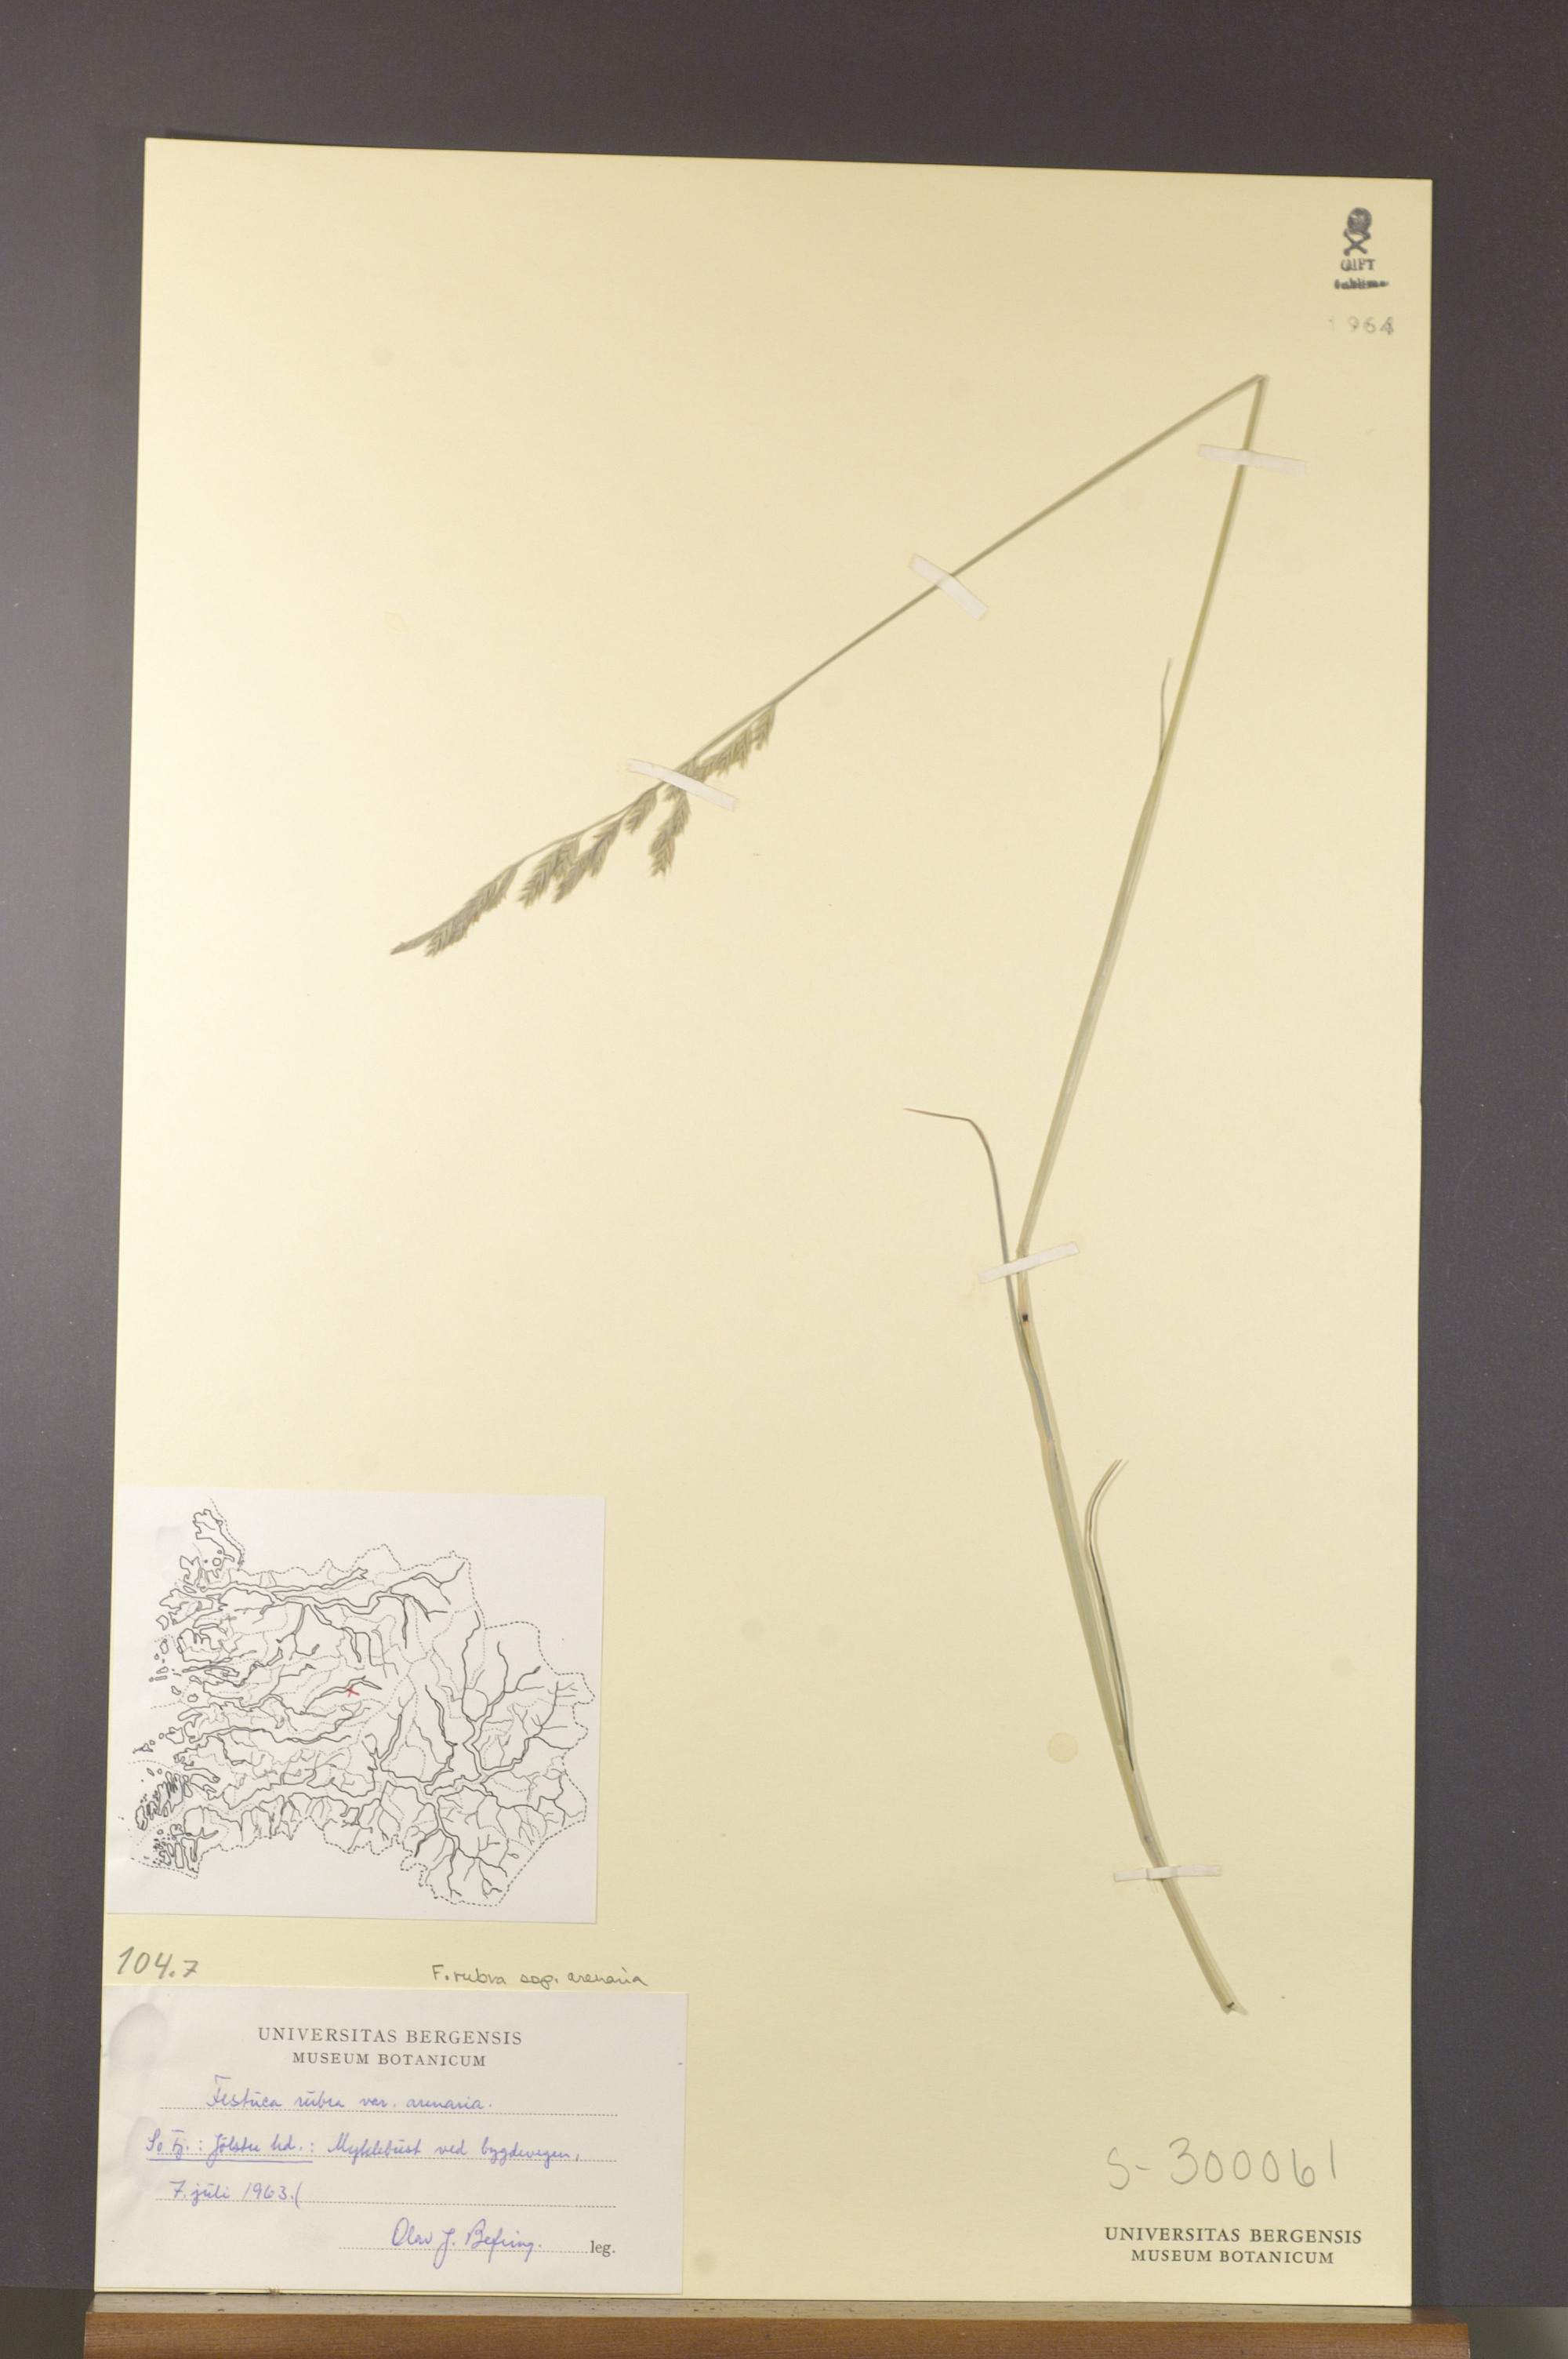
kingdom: Plantae
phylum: Tracheophyta
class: Liliopsida
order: Poales
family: Poaceae
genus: Festuca
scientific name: Festuca rubra
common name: Red fescue
